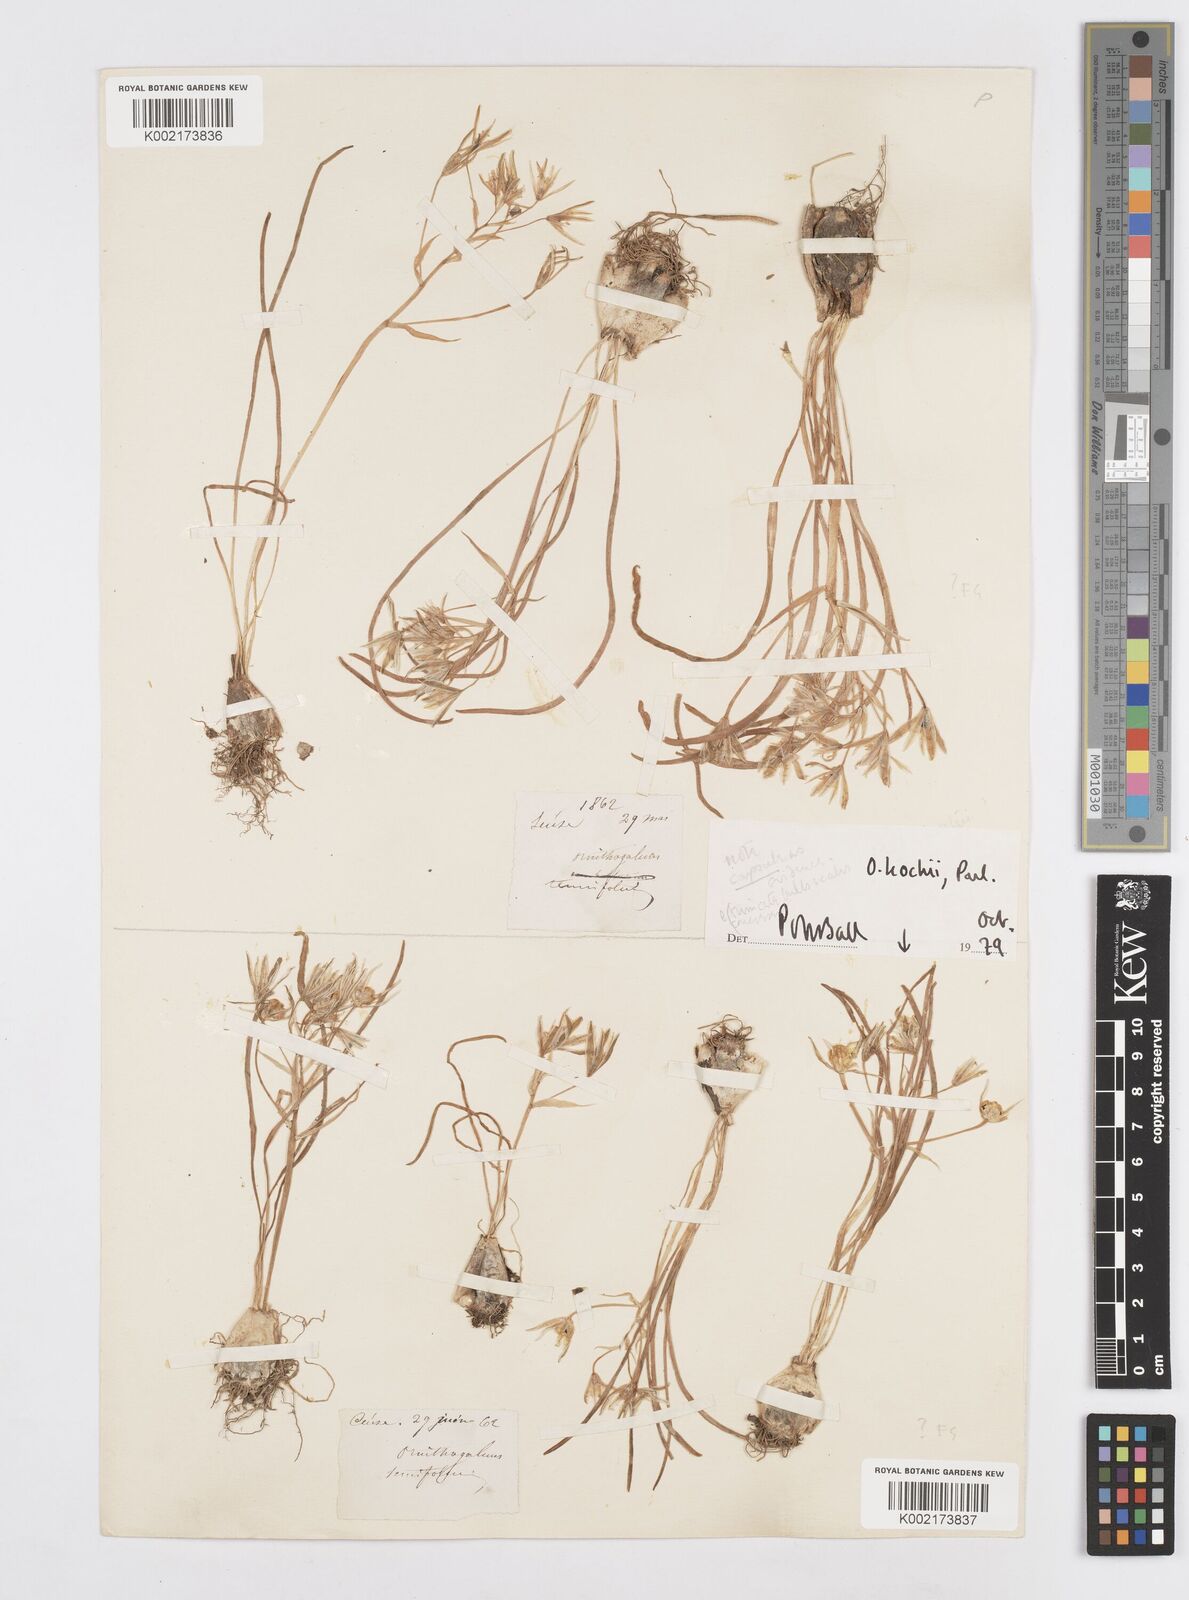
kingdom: Plantae
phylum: Tracheophyta
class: Liliopsida
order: Asparagales
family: Asparagaceae
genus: Ornithogalum
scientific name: Ornithogalum orthophyllum
